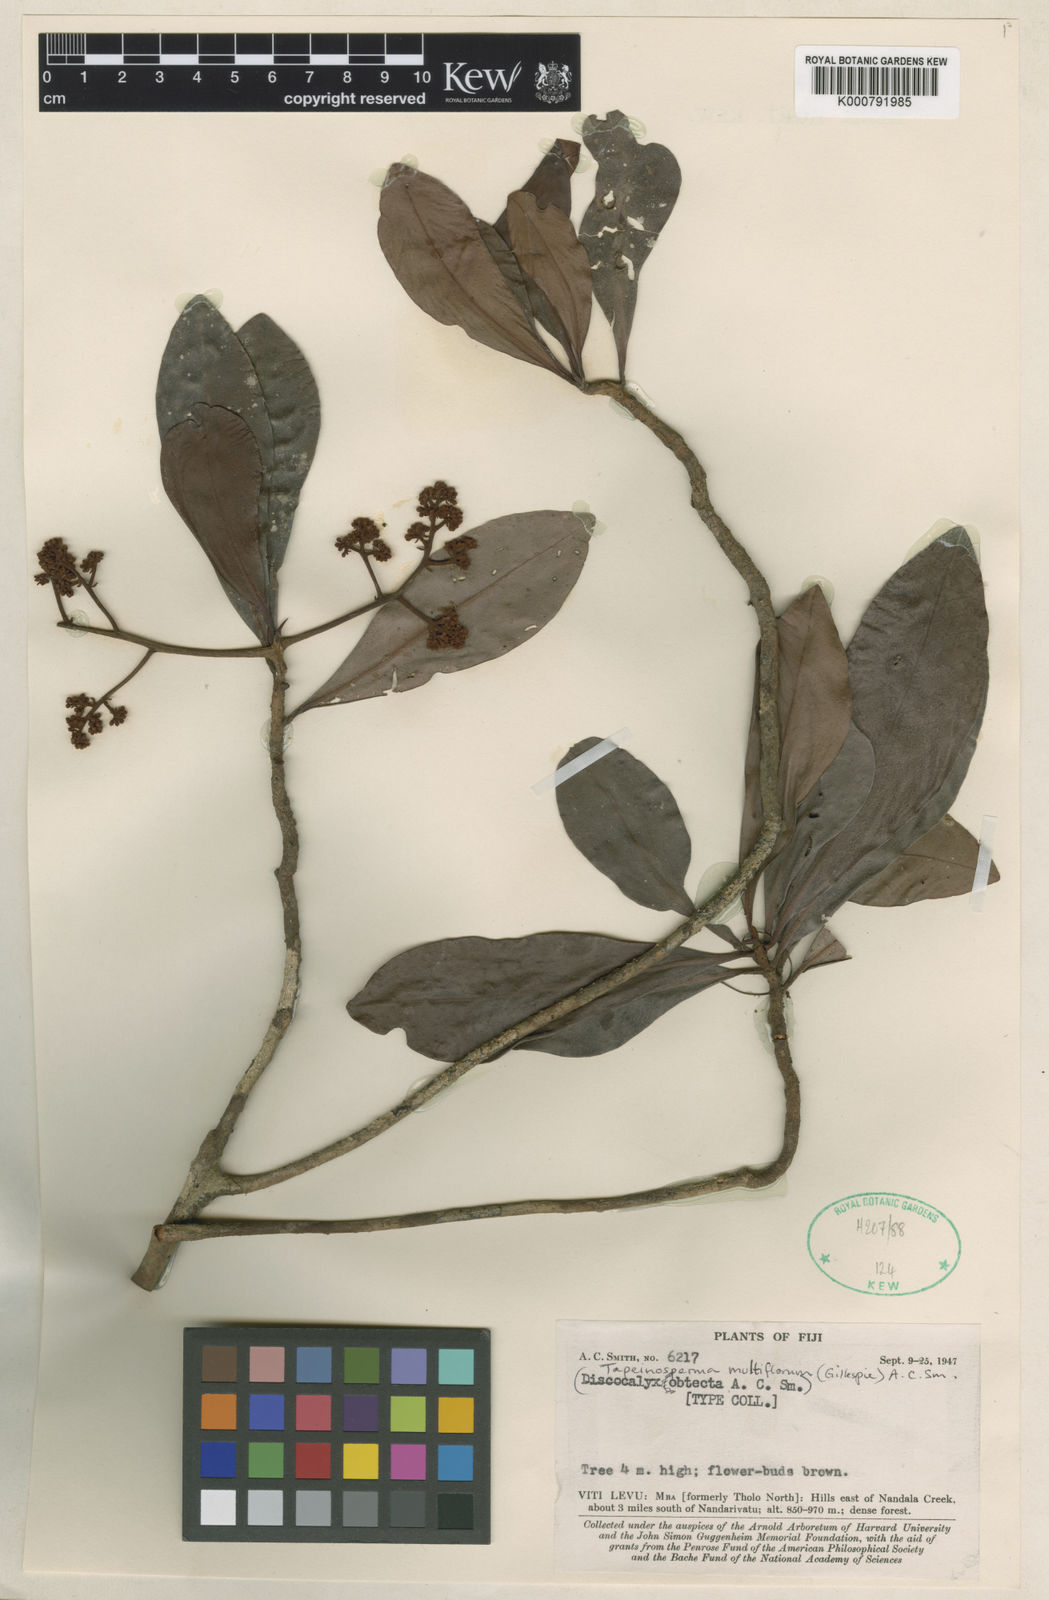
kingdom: Plantae
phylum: Tracheophyta
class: Magnoliopsida
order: Ericales
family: Primulaceae
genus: Tapeinosperma
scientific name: Tapeinosperma multiflorum
